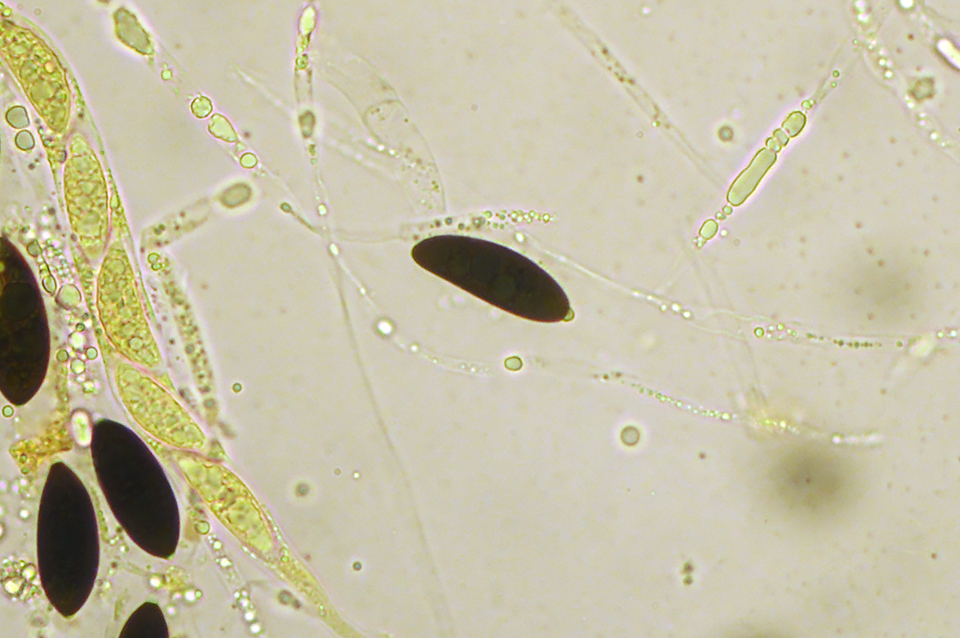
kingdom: Fungi
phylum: Ascomycota
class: Sordariomycetes
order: Xylariales
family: Xylariaceae
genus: Rosellinia
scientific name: Rosellinia corticium
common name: måtte-kulkaviar
